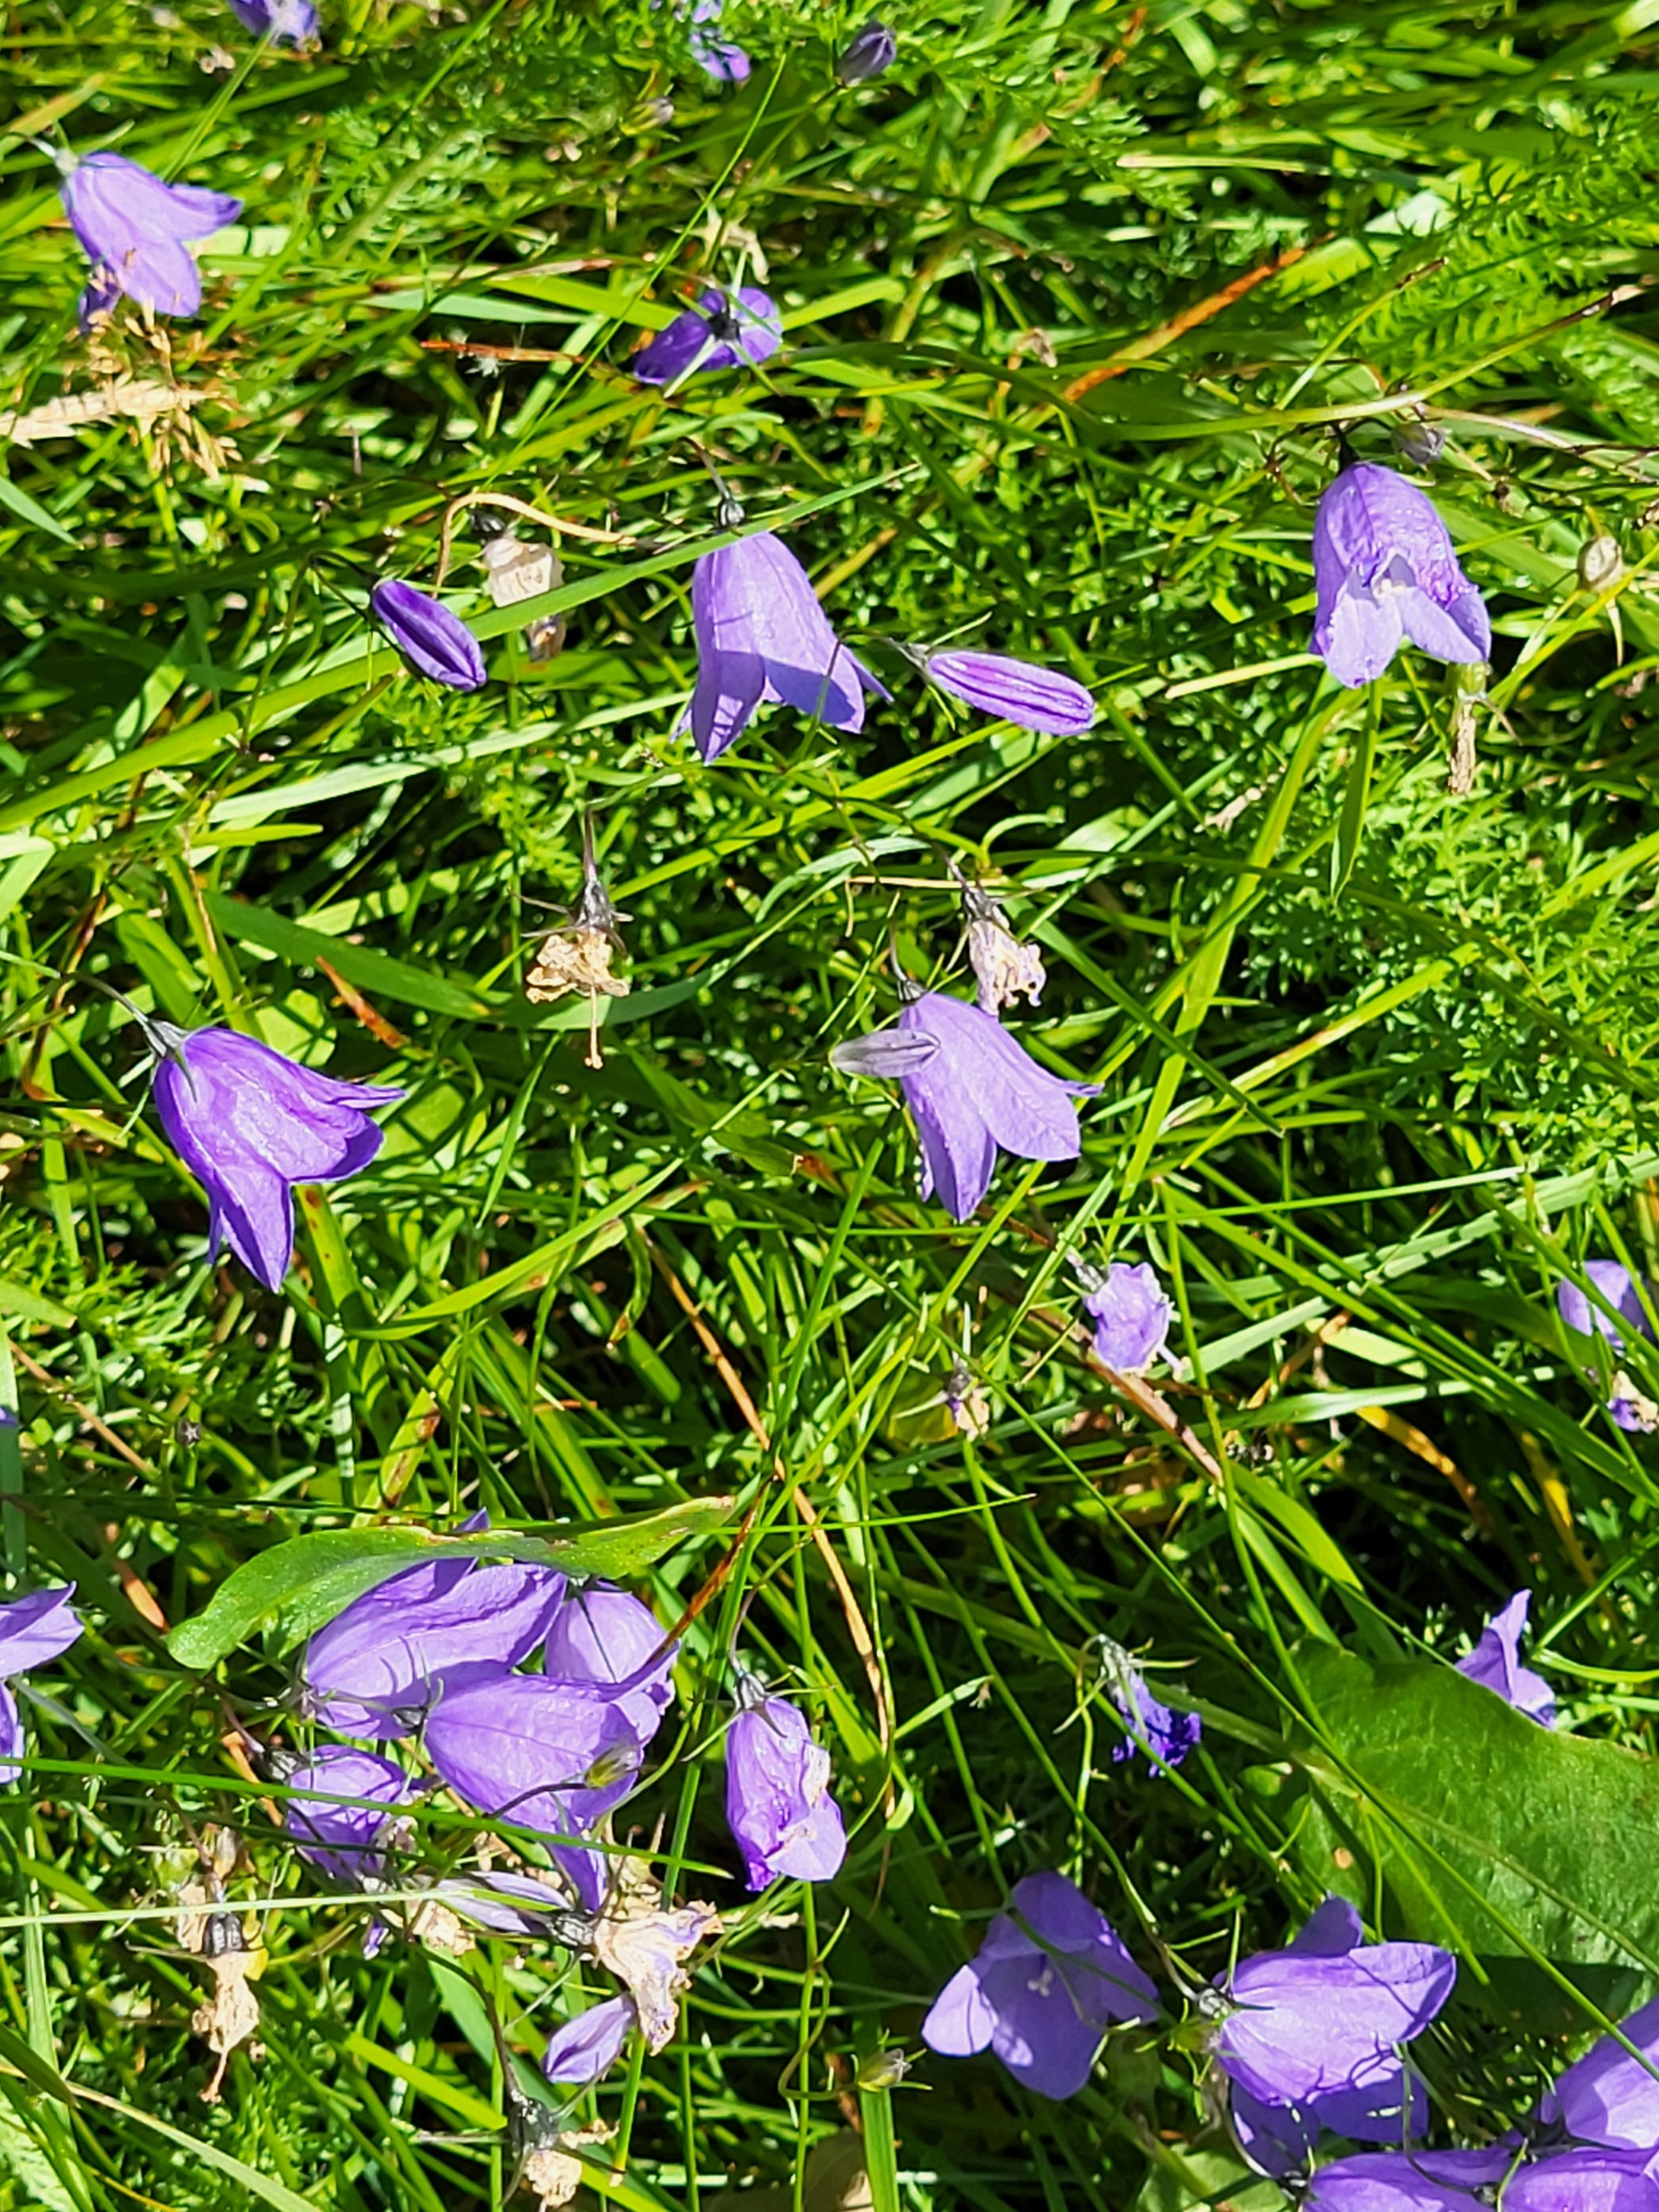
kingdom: Plantae
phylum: Tracheophyta
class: Magnoliopsida
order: Asterales
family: Campanulaceae
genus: Campanula
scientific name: Campanula rotundifolia
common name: Liden klokke
